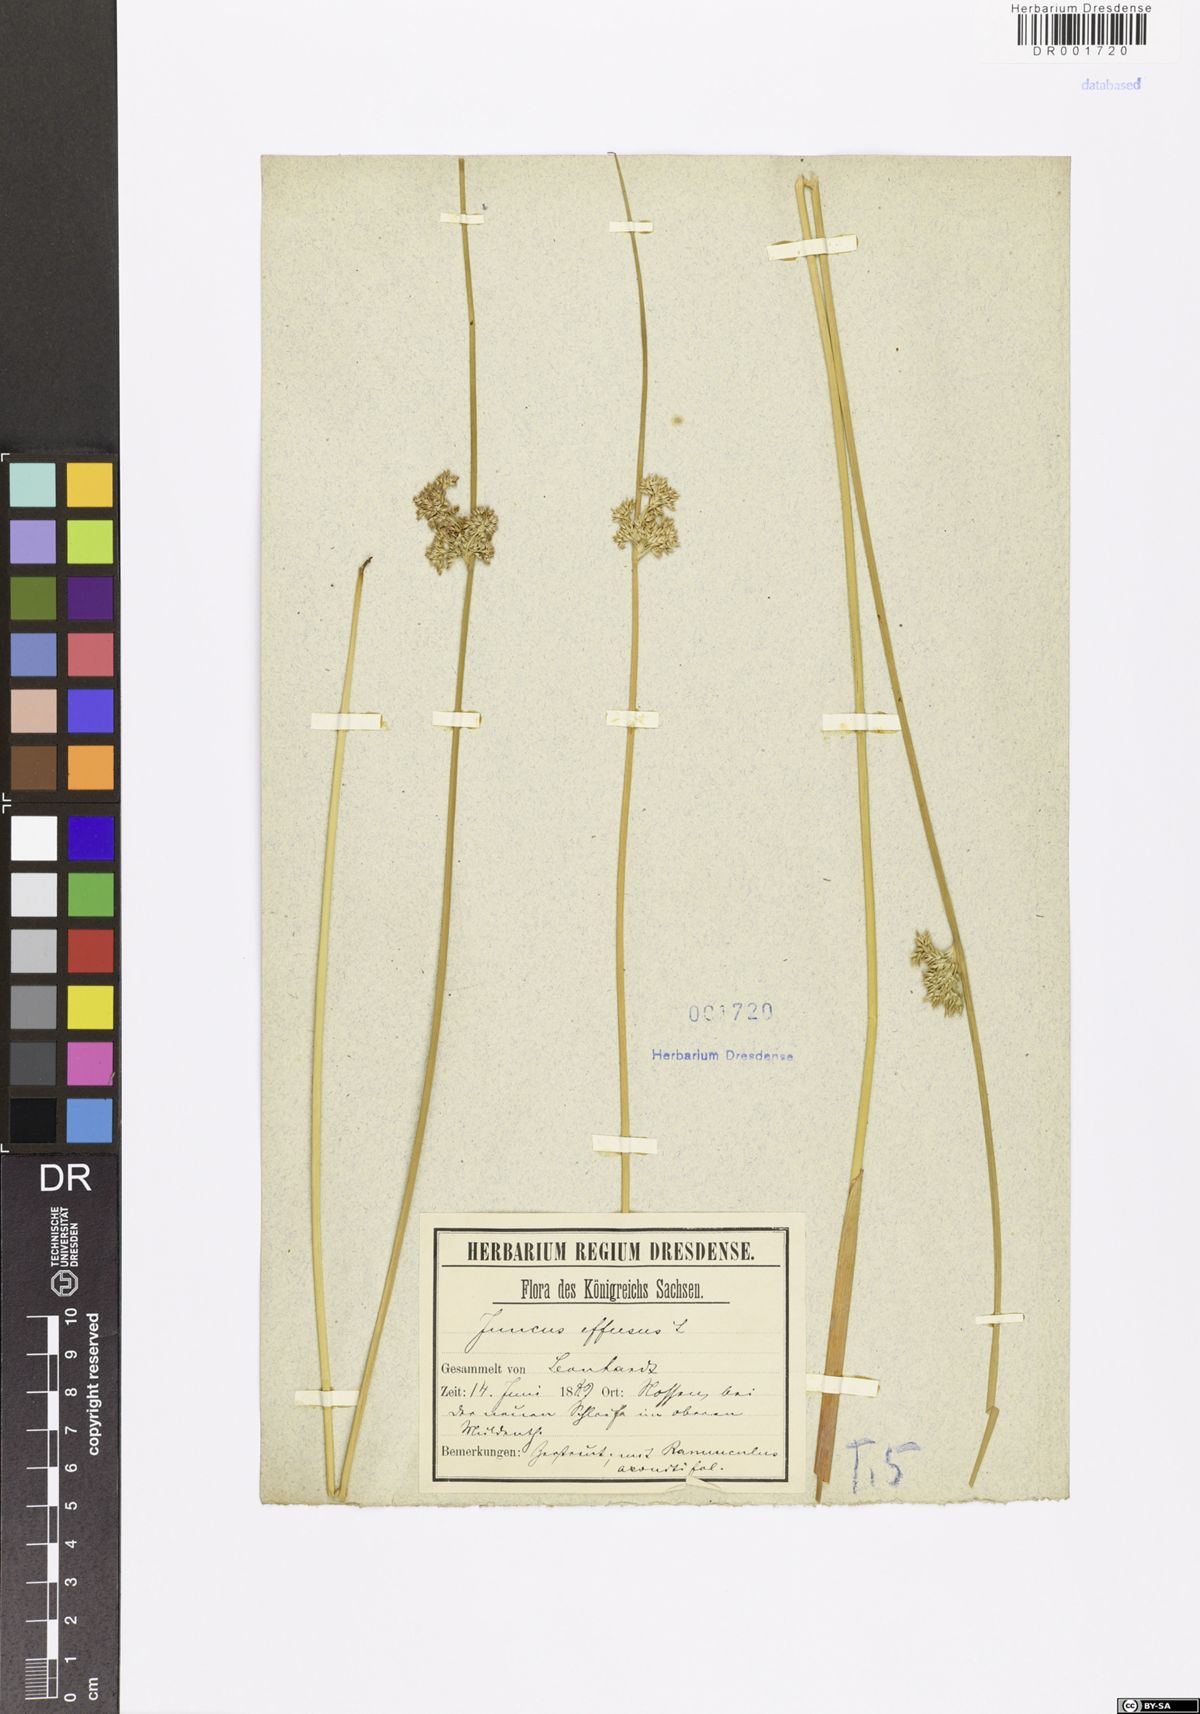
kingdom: Plantae
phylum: Tracheophyta
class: Liliopsida
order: Poales
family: Juncaceae
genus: Juncus
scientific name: Juncus effusus
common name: Soft rush
